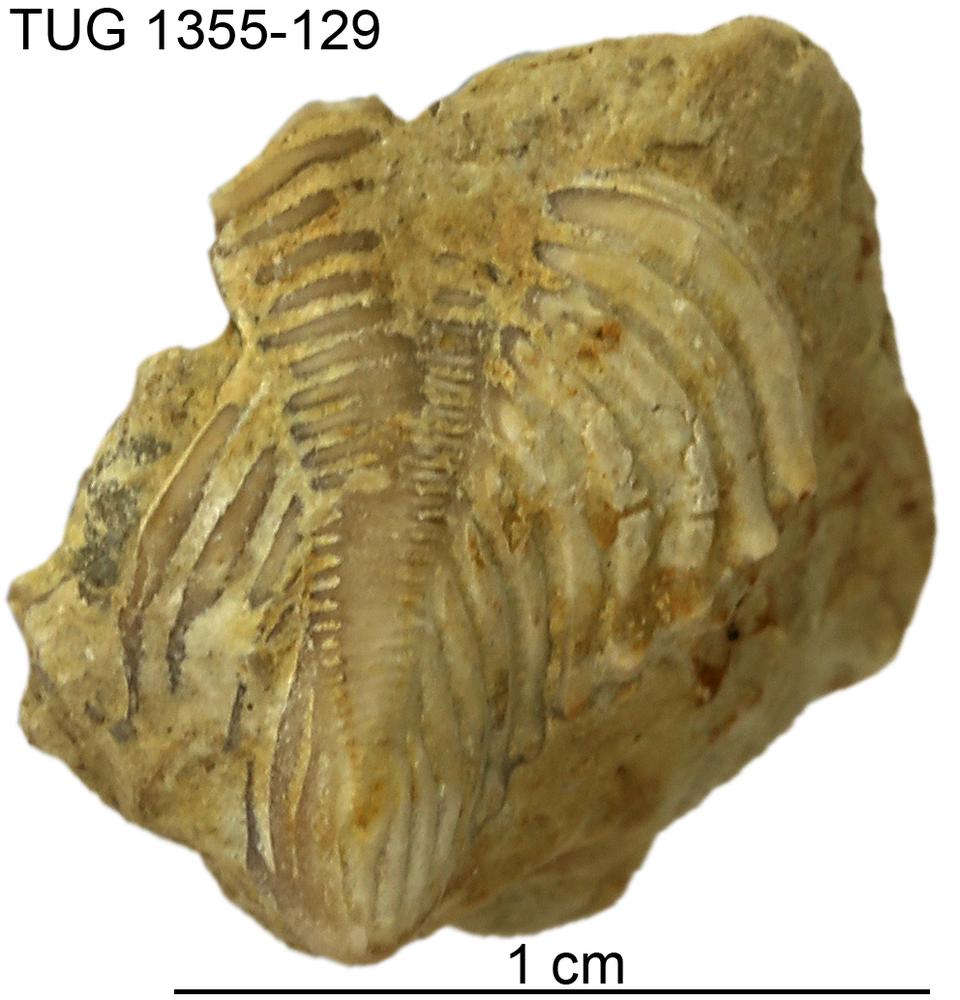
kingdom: Animalia
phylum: Arthropoda
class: Trilobita
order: Phacopida
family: Pterygometopidae
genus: Chasmops
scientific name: Chasmops
